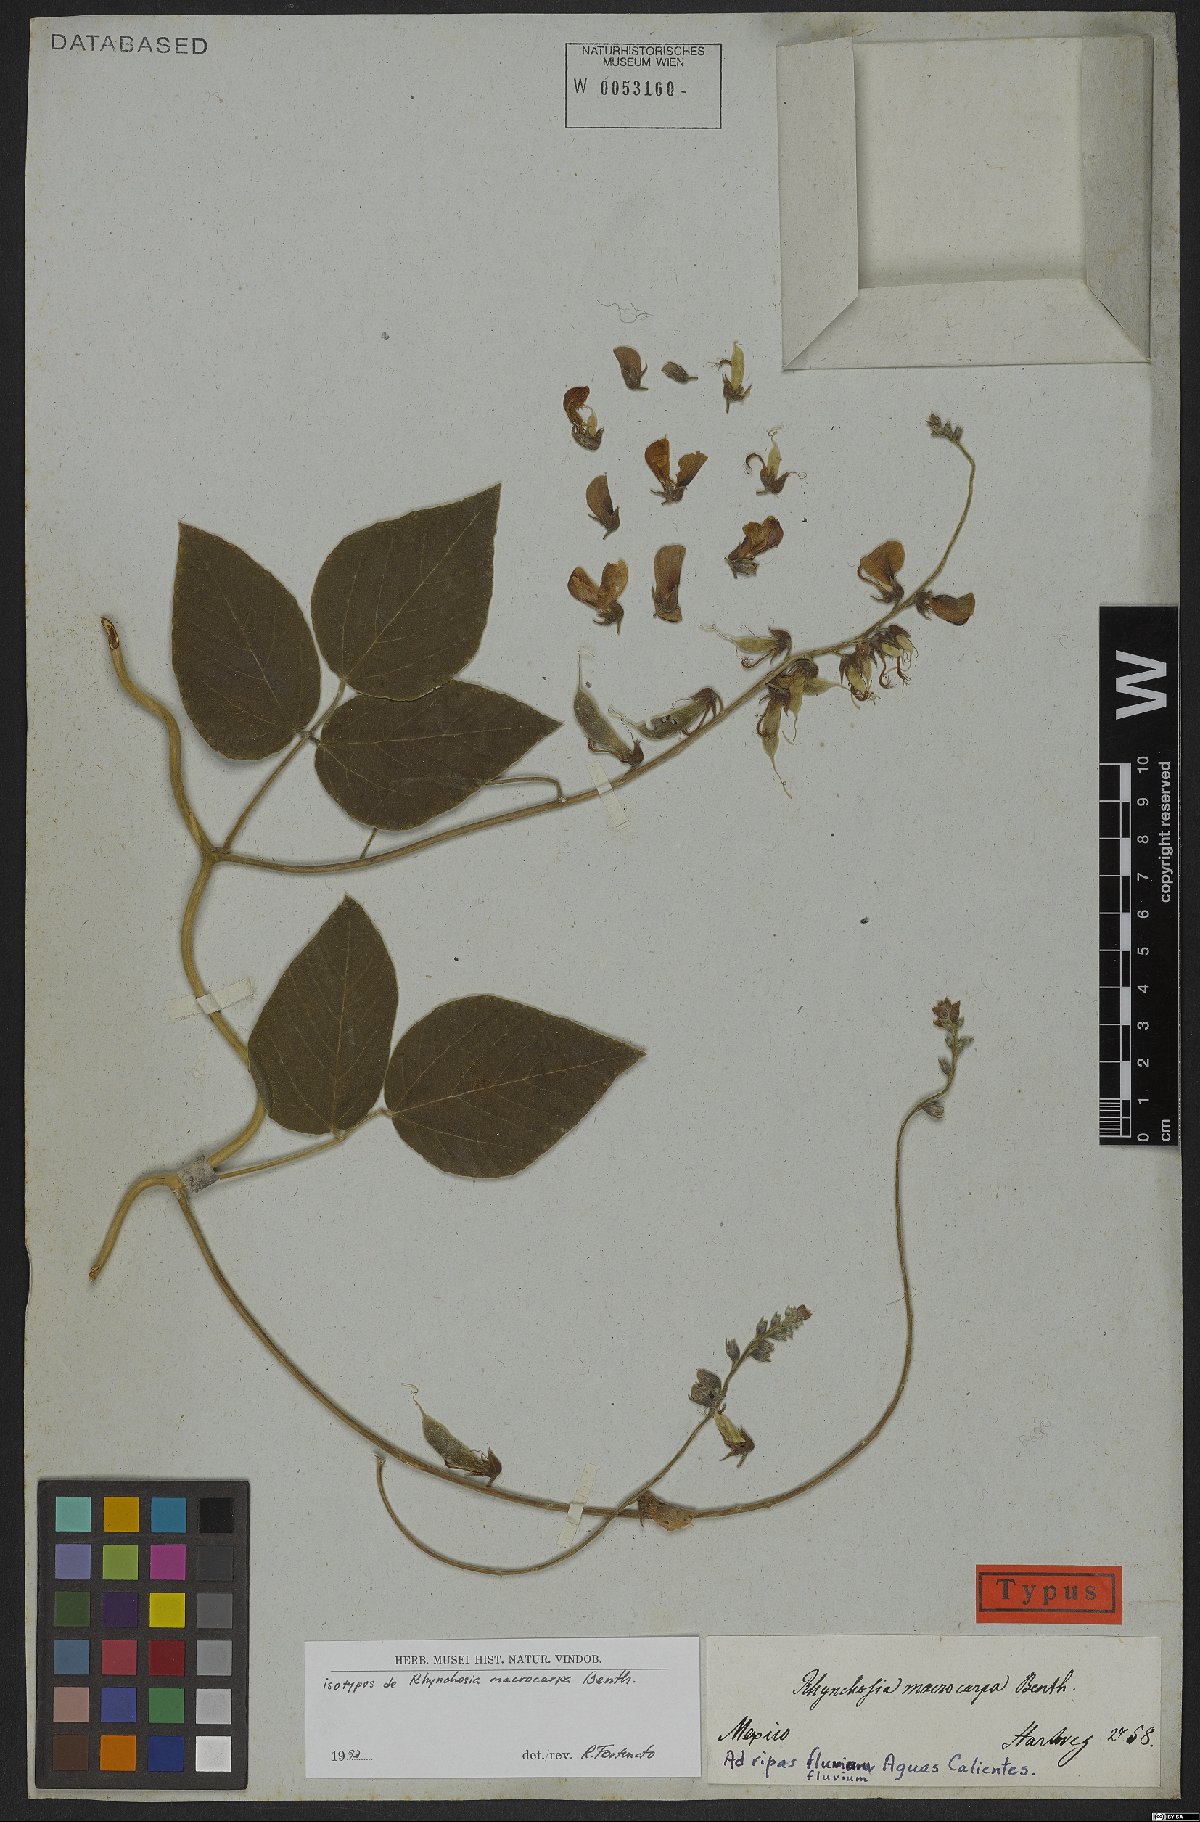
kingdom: Plantae
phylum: Tracheophyta
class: Magnoliopsida
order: Fabales
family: Fabaceae
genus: Rhynchosia
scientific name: Rhynchosia macrocarpa
